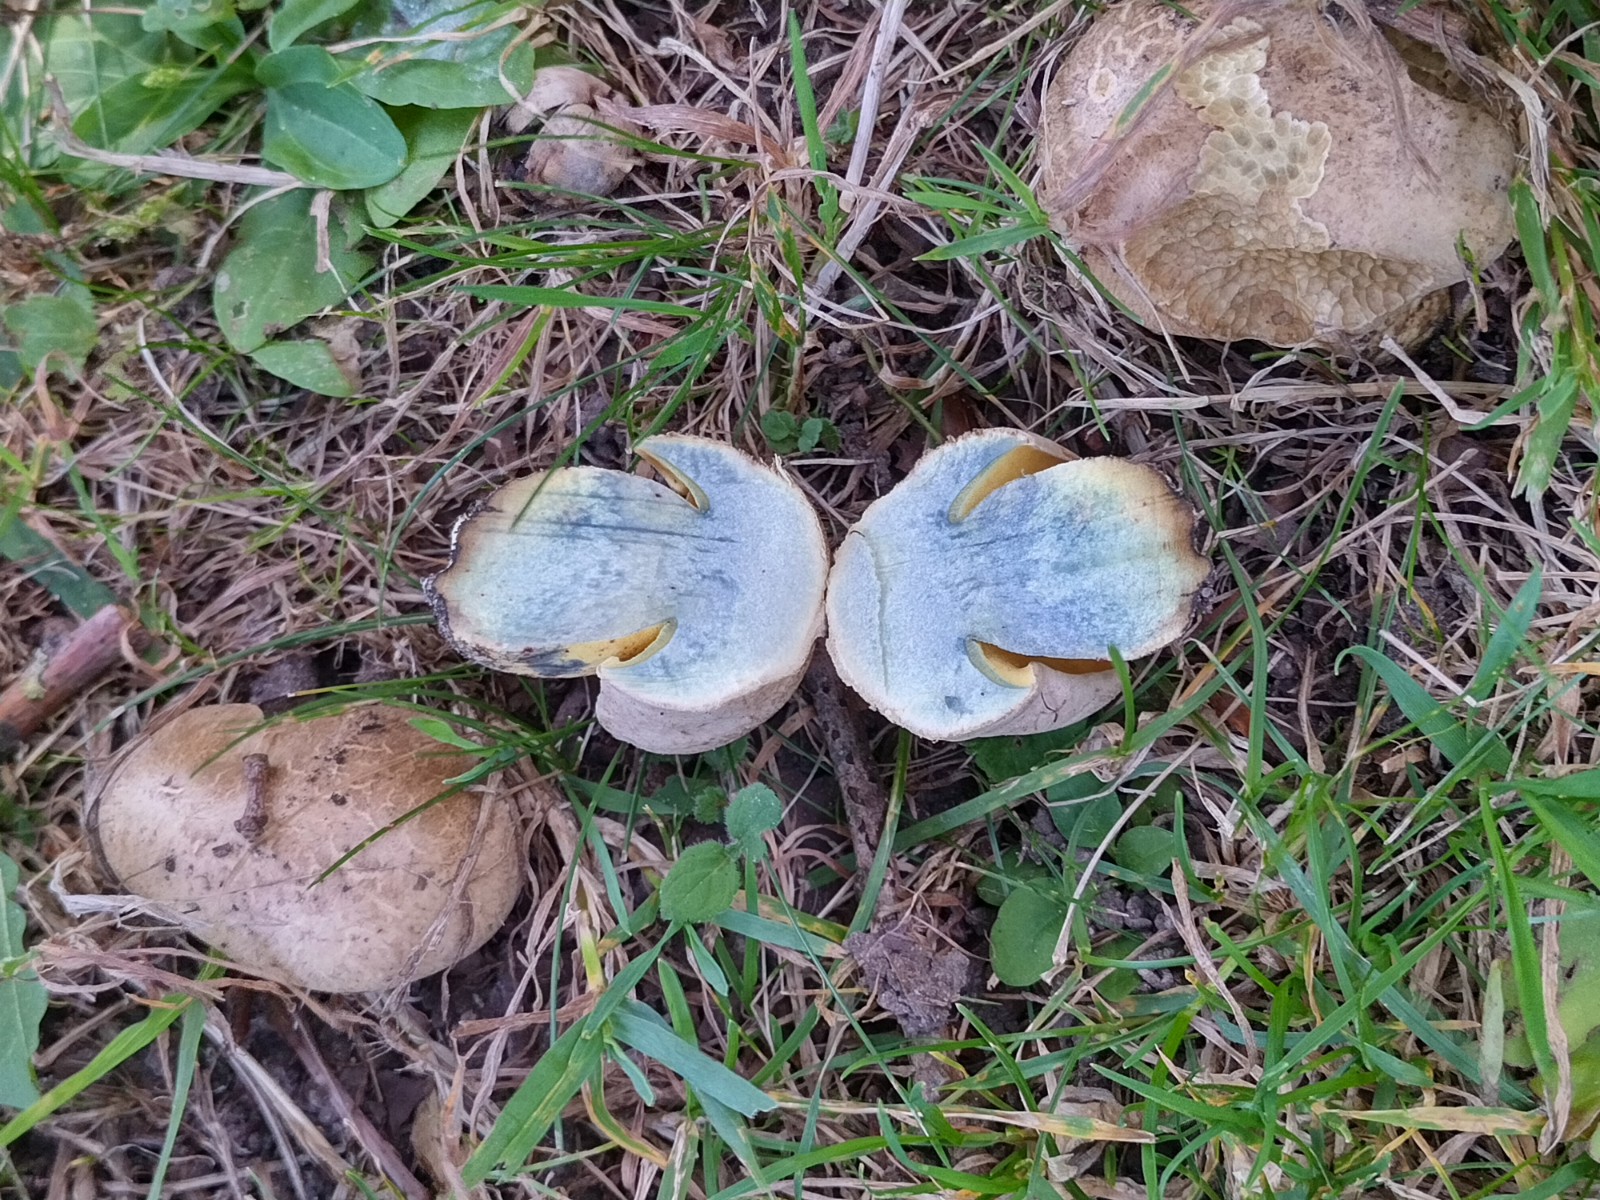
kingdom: Fungi
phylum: Basidiomycota
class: Agaricomycetes
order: Boletales
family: Boletaceae
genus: Caloboletus
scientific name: Caloboletus radicans
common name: rod-rørhat
